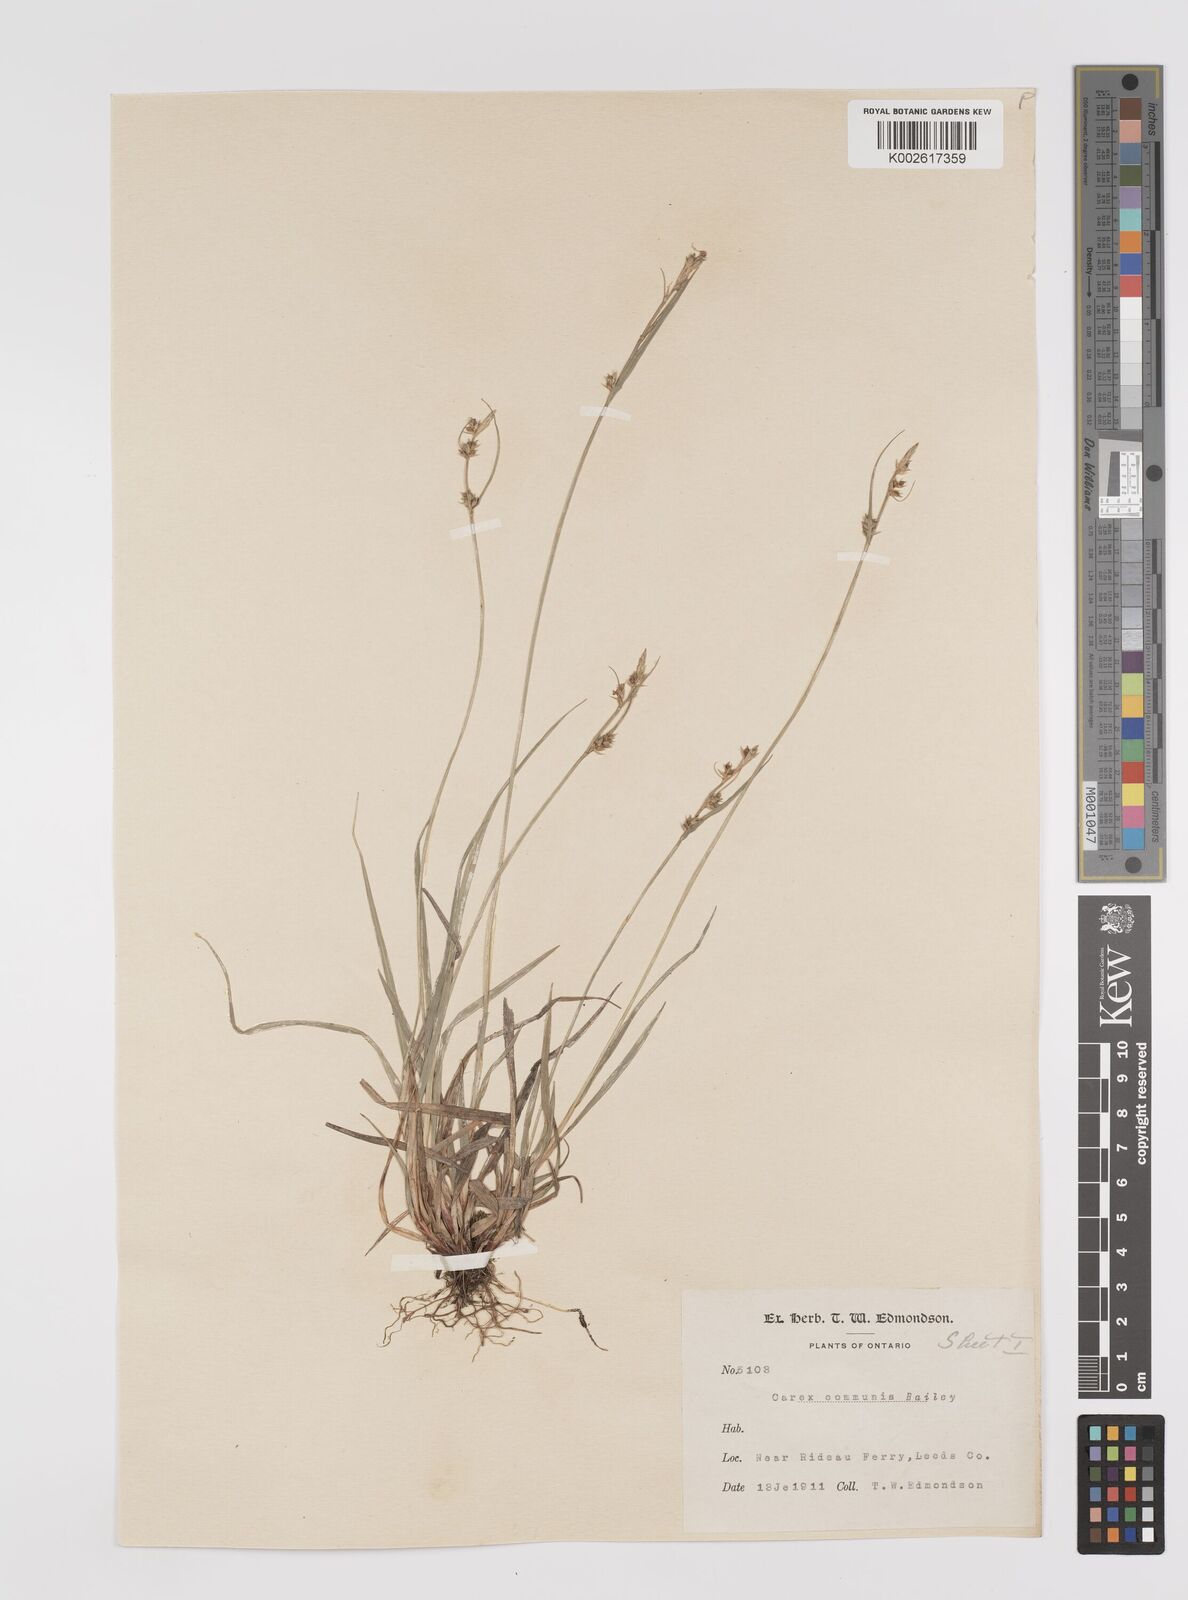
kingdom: Plantae
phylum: Tracheophyta
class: Liliopsida
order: Poales
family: Cyperaceae
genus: Carex
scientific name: Carex communis
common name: Colonial oak sedge
